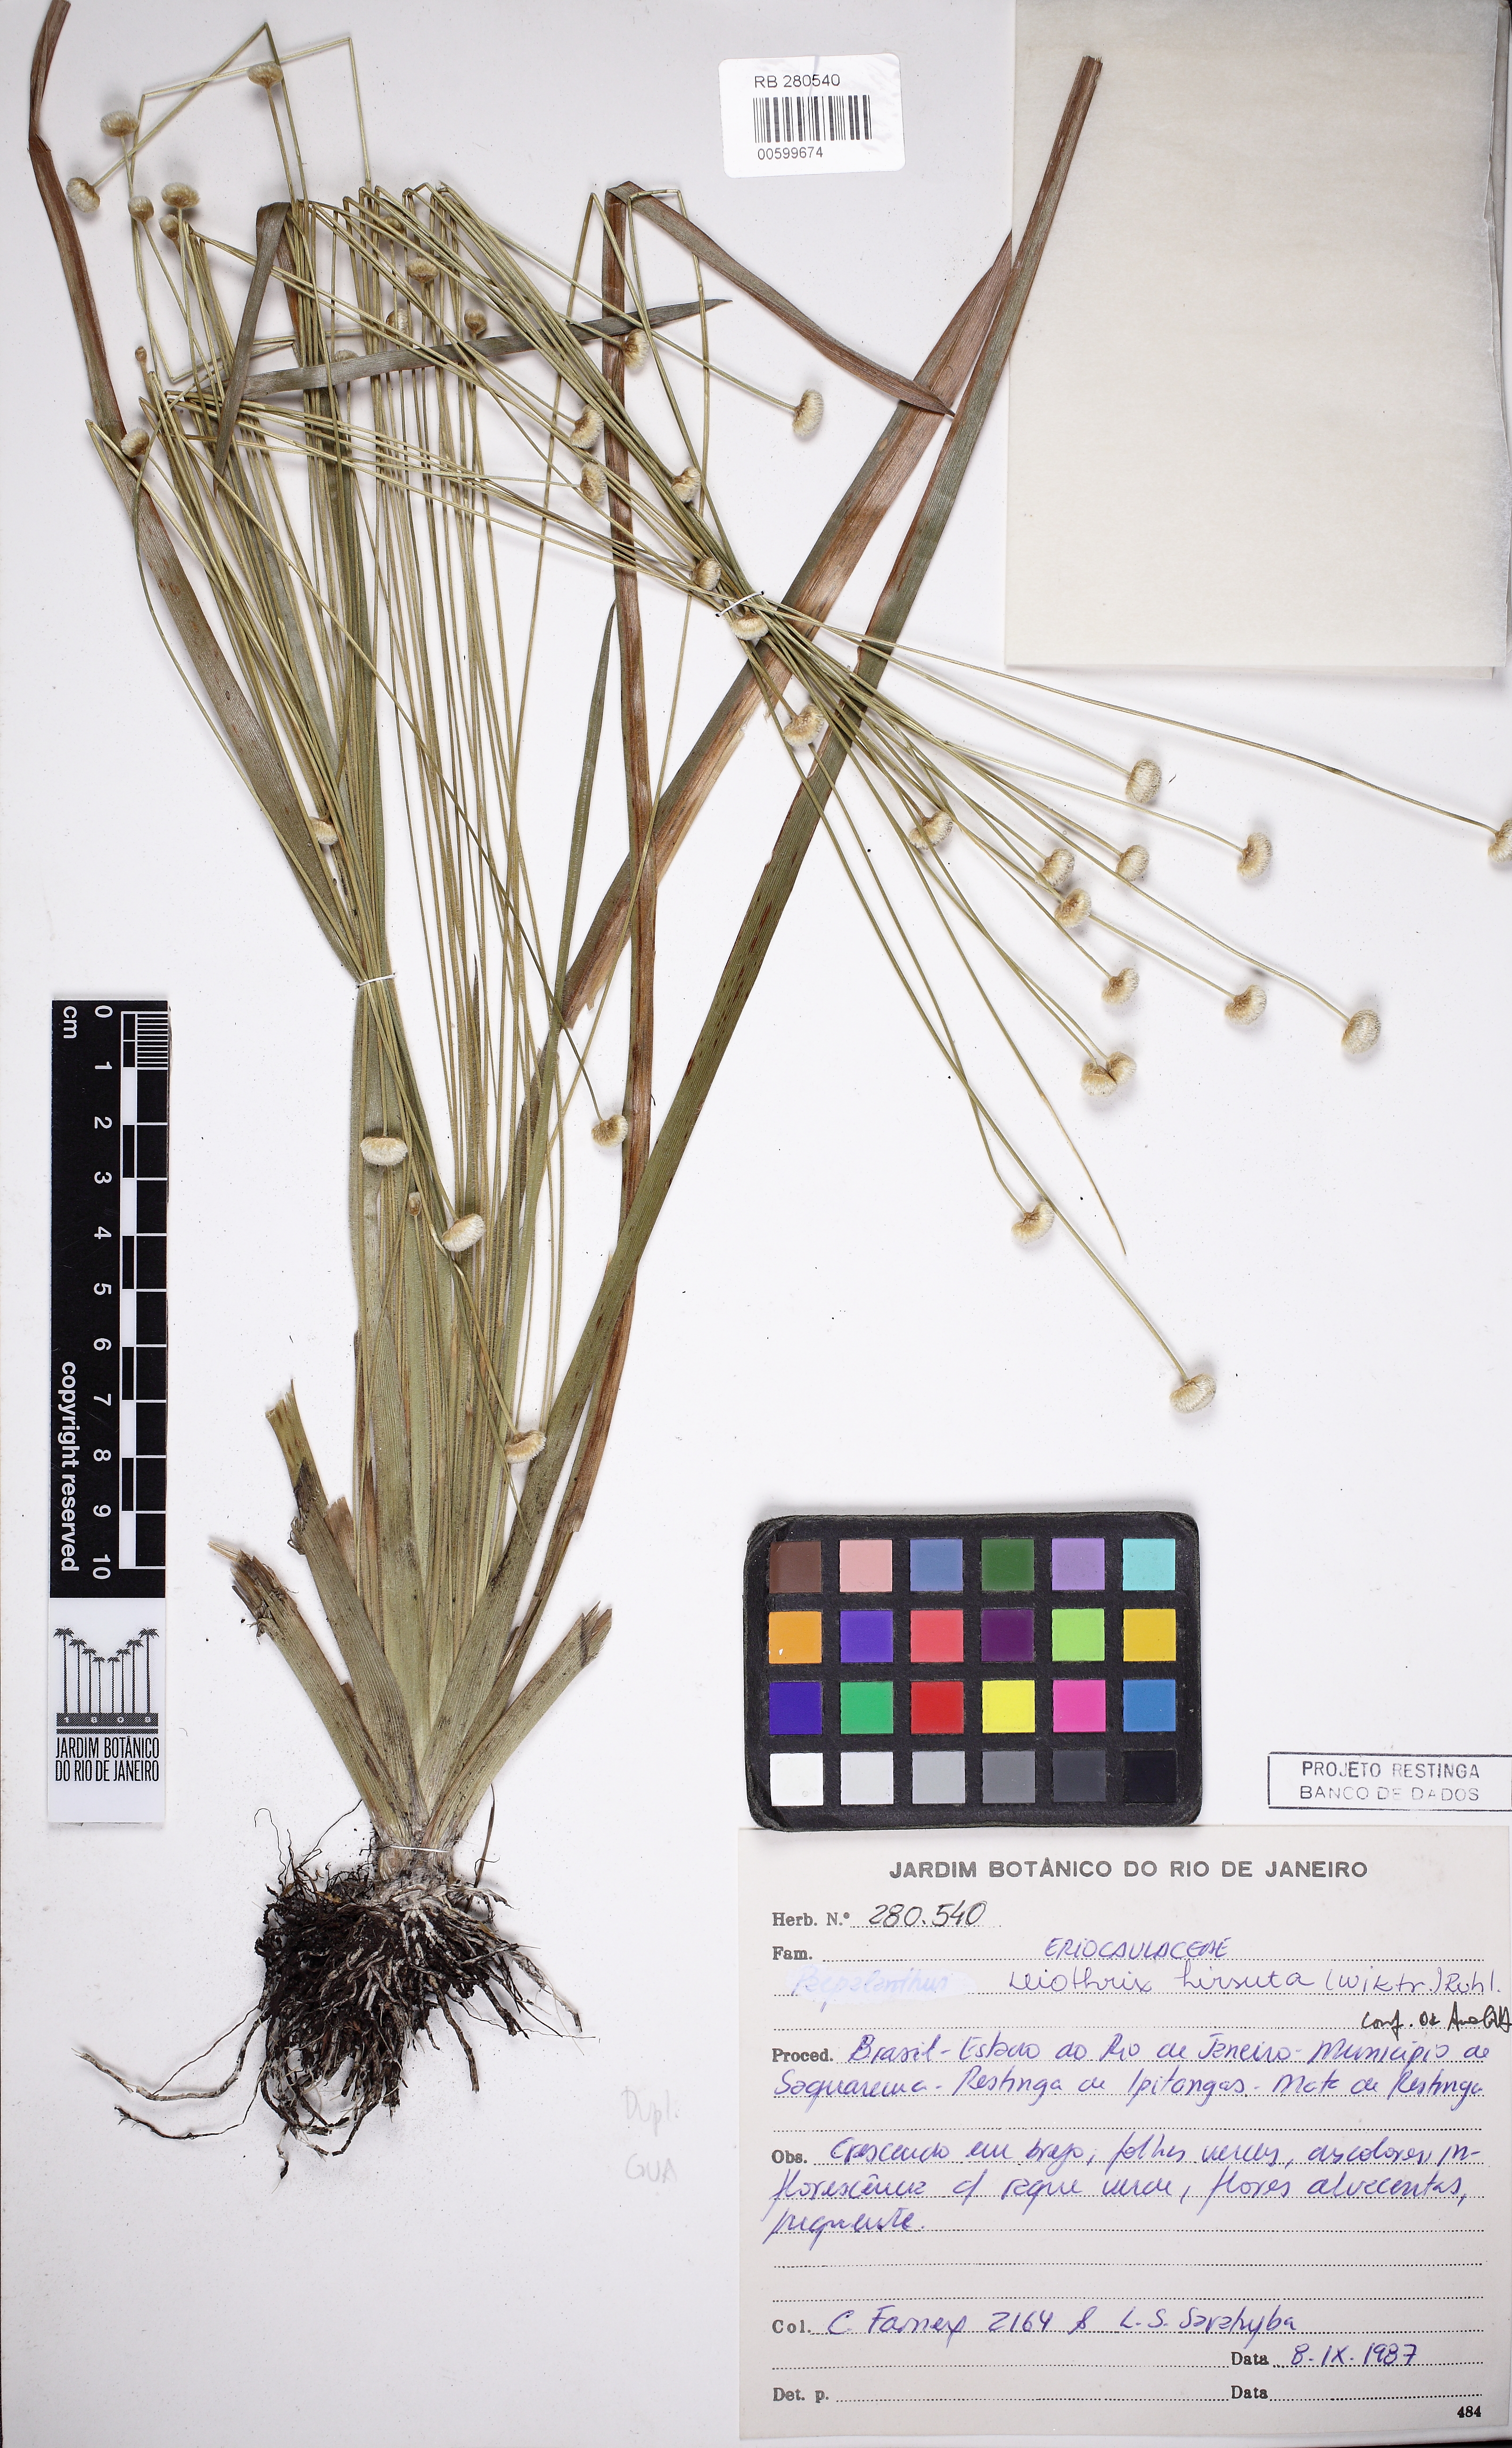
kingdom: Plantae
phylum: Tracheophyta
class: Liliopsida
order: Poales
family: Eriocaulaceae
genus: Leiothrix
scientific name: Leiothrix hirsuta
